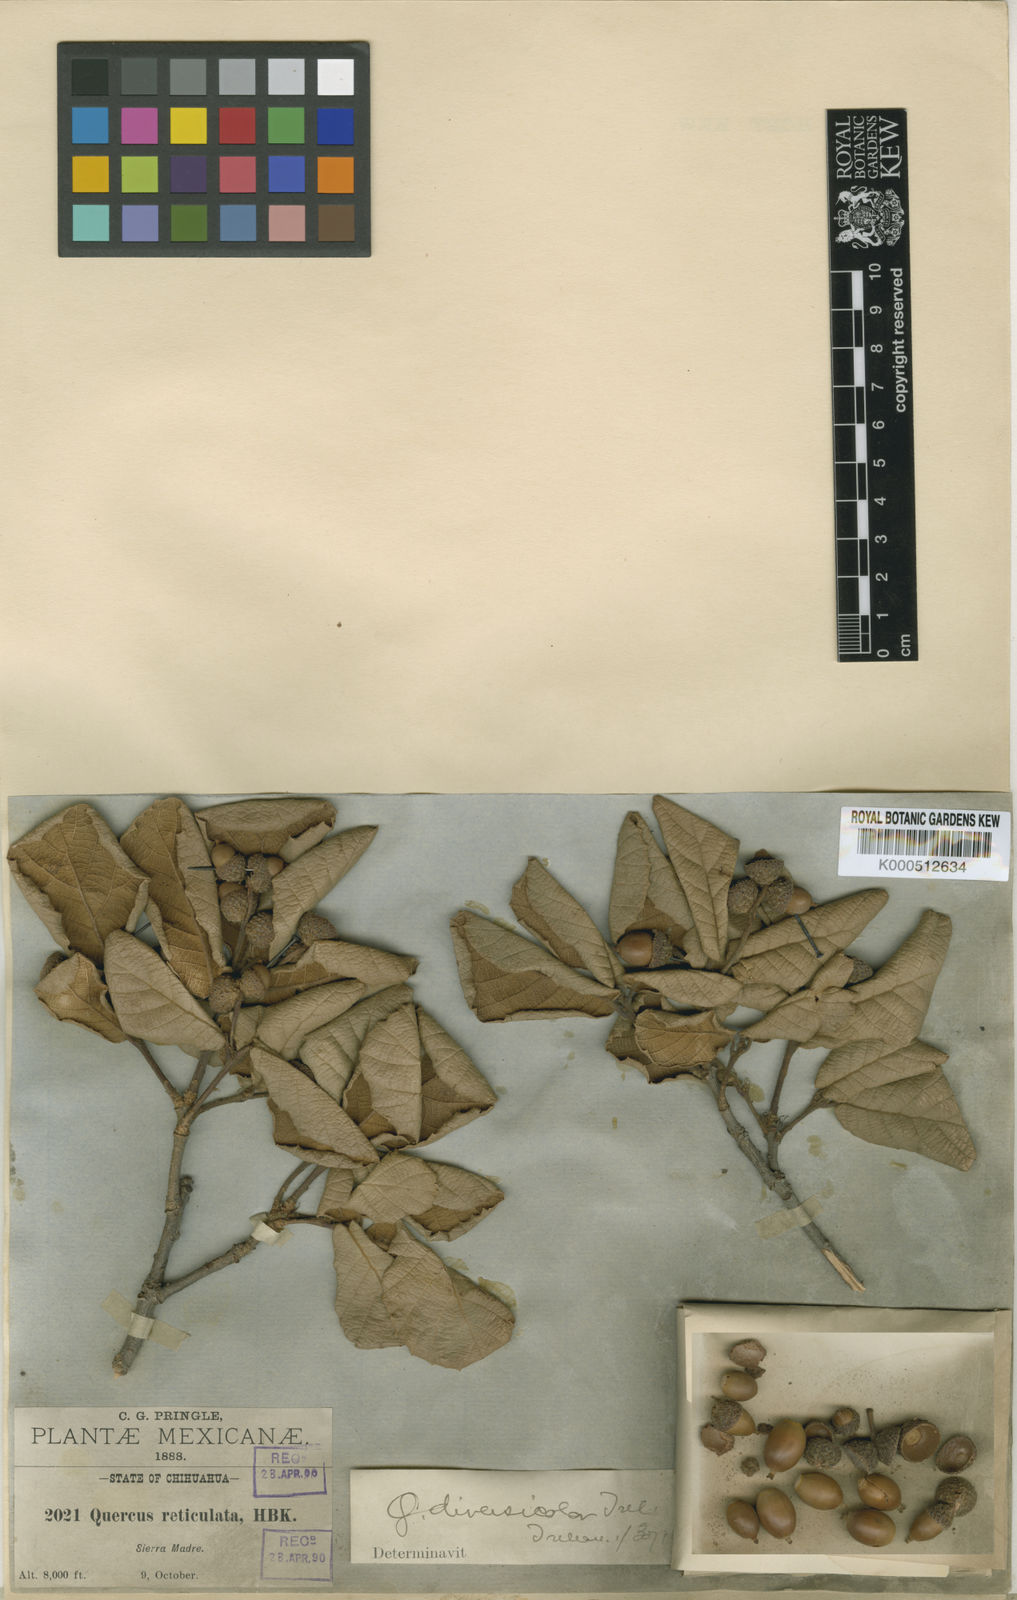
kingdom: Plantae
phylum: Tracheophyta
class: Magnoliopsida
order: Fagales
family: Fagaceae
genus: Quercus
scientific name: Quercus rugosa
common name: Netleaf oak
